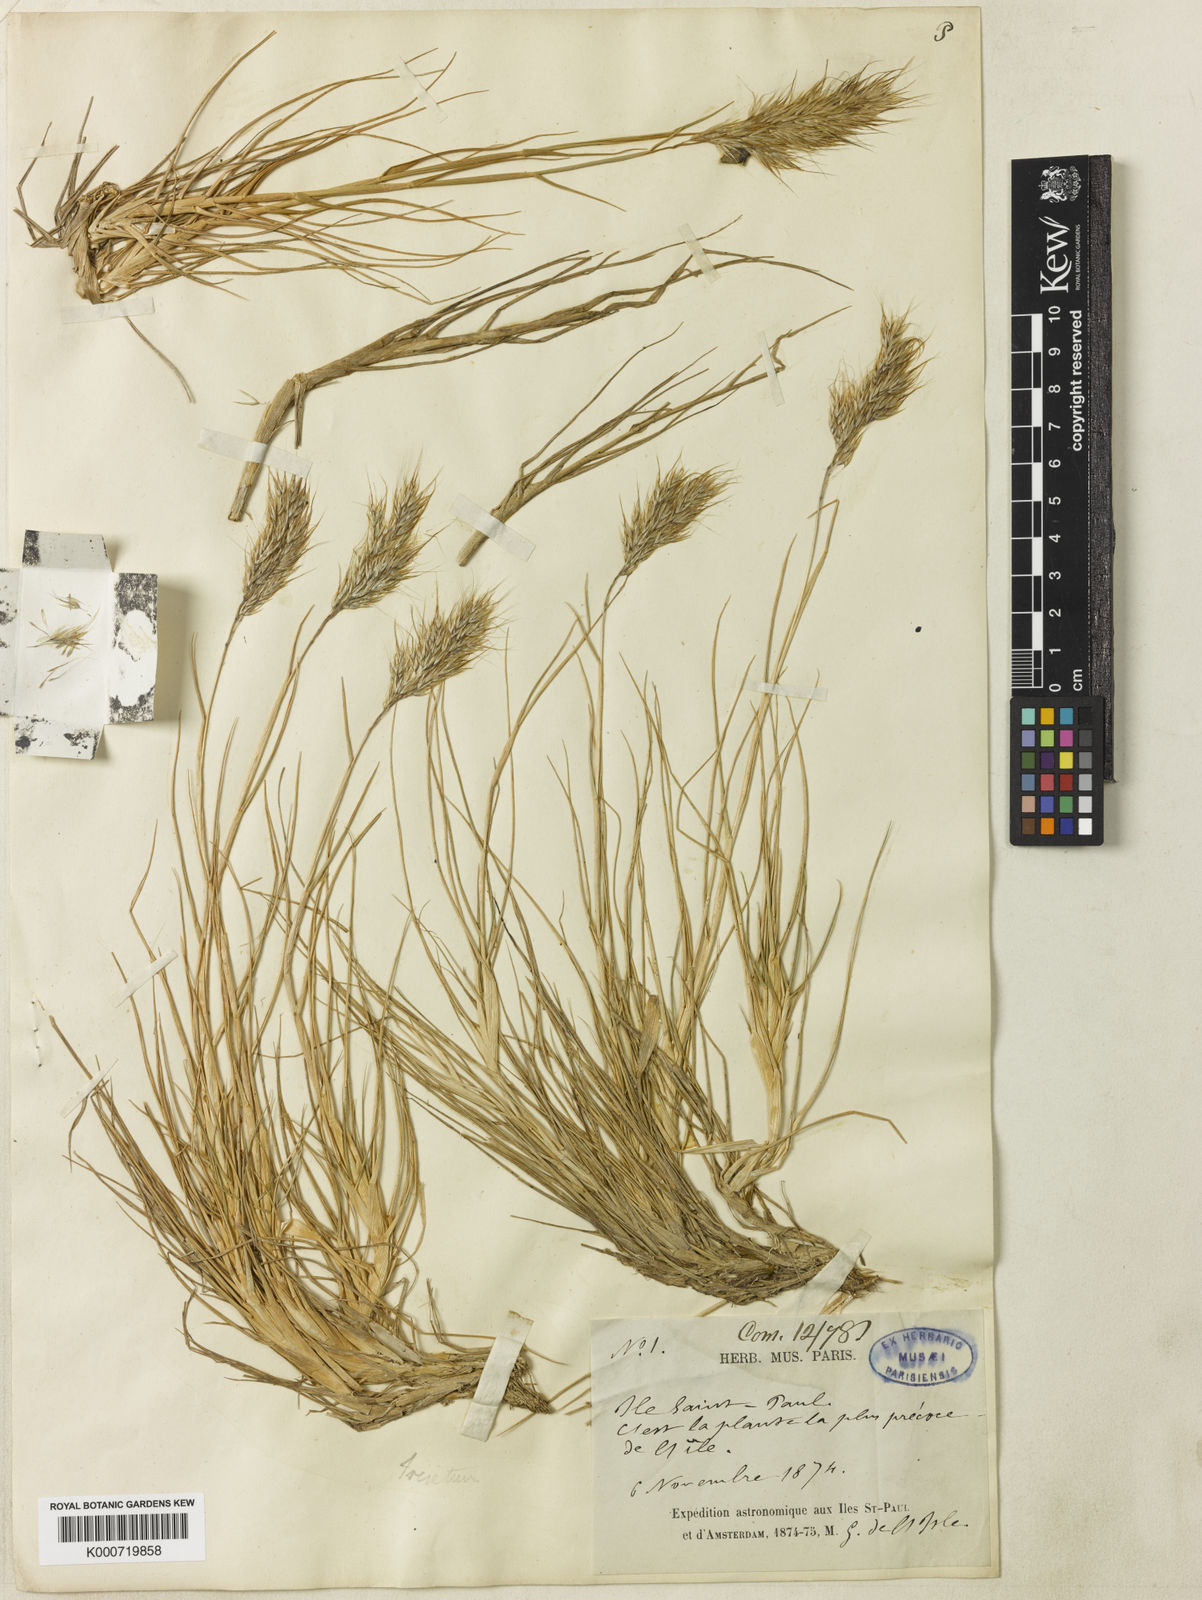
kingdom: Plantae
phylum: Tracheophyta
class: Liliopsida
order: Poales
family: Poaceae
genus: Pentameris
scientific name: Pentameris insularis
